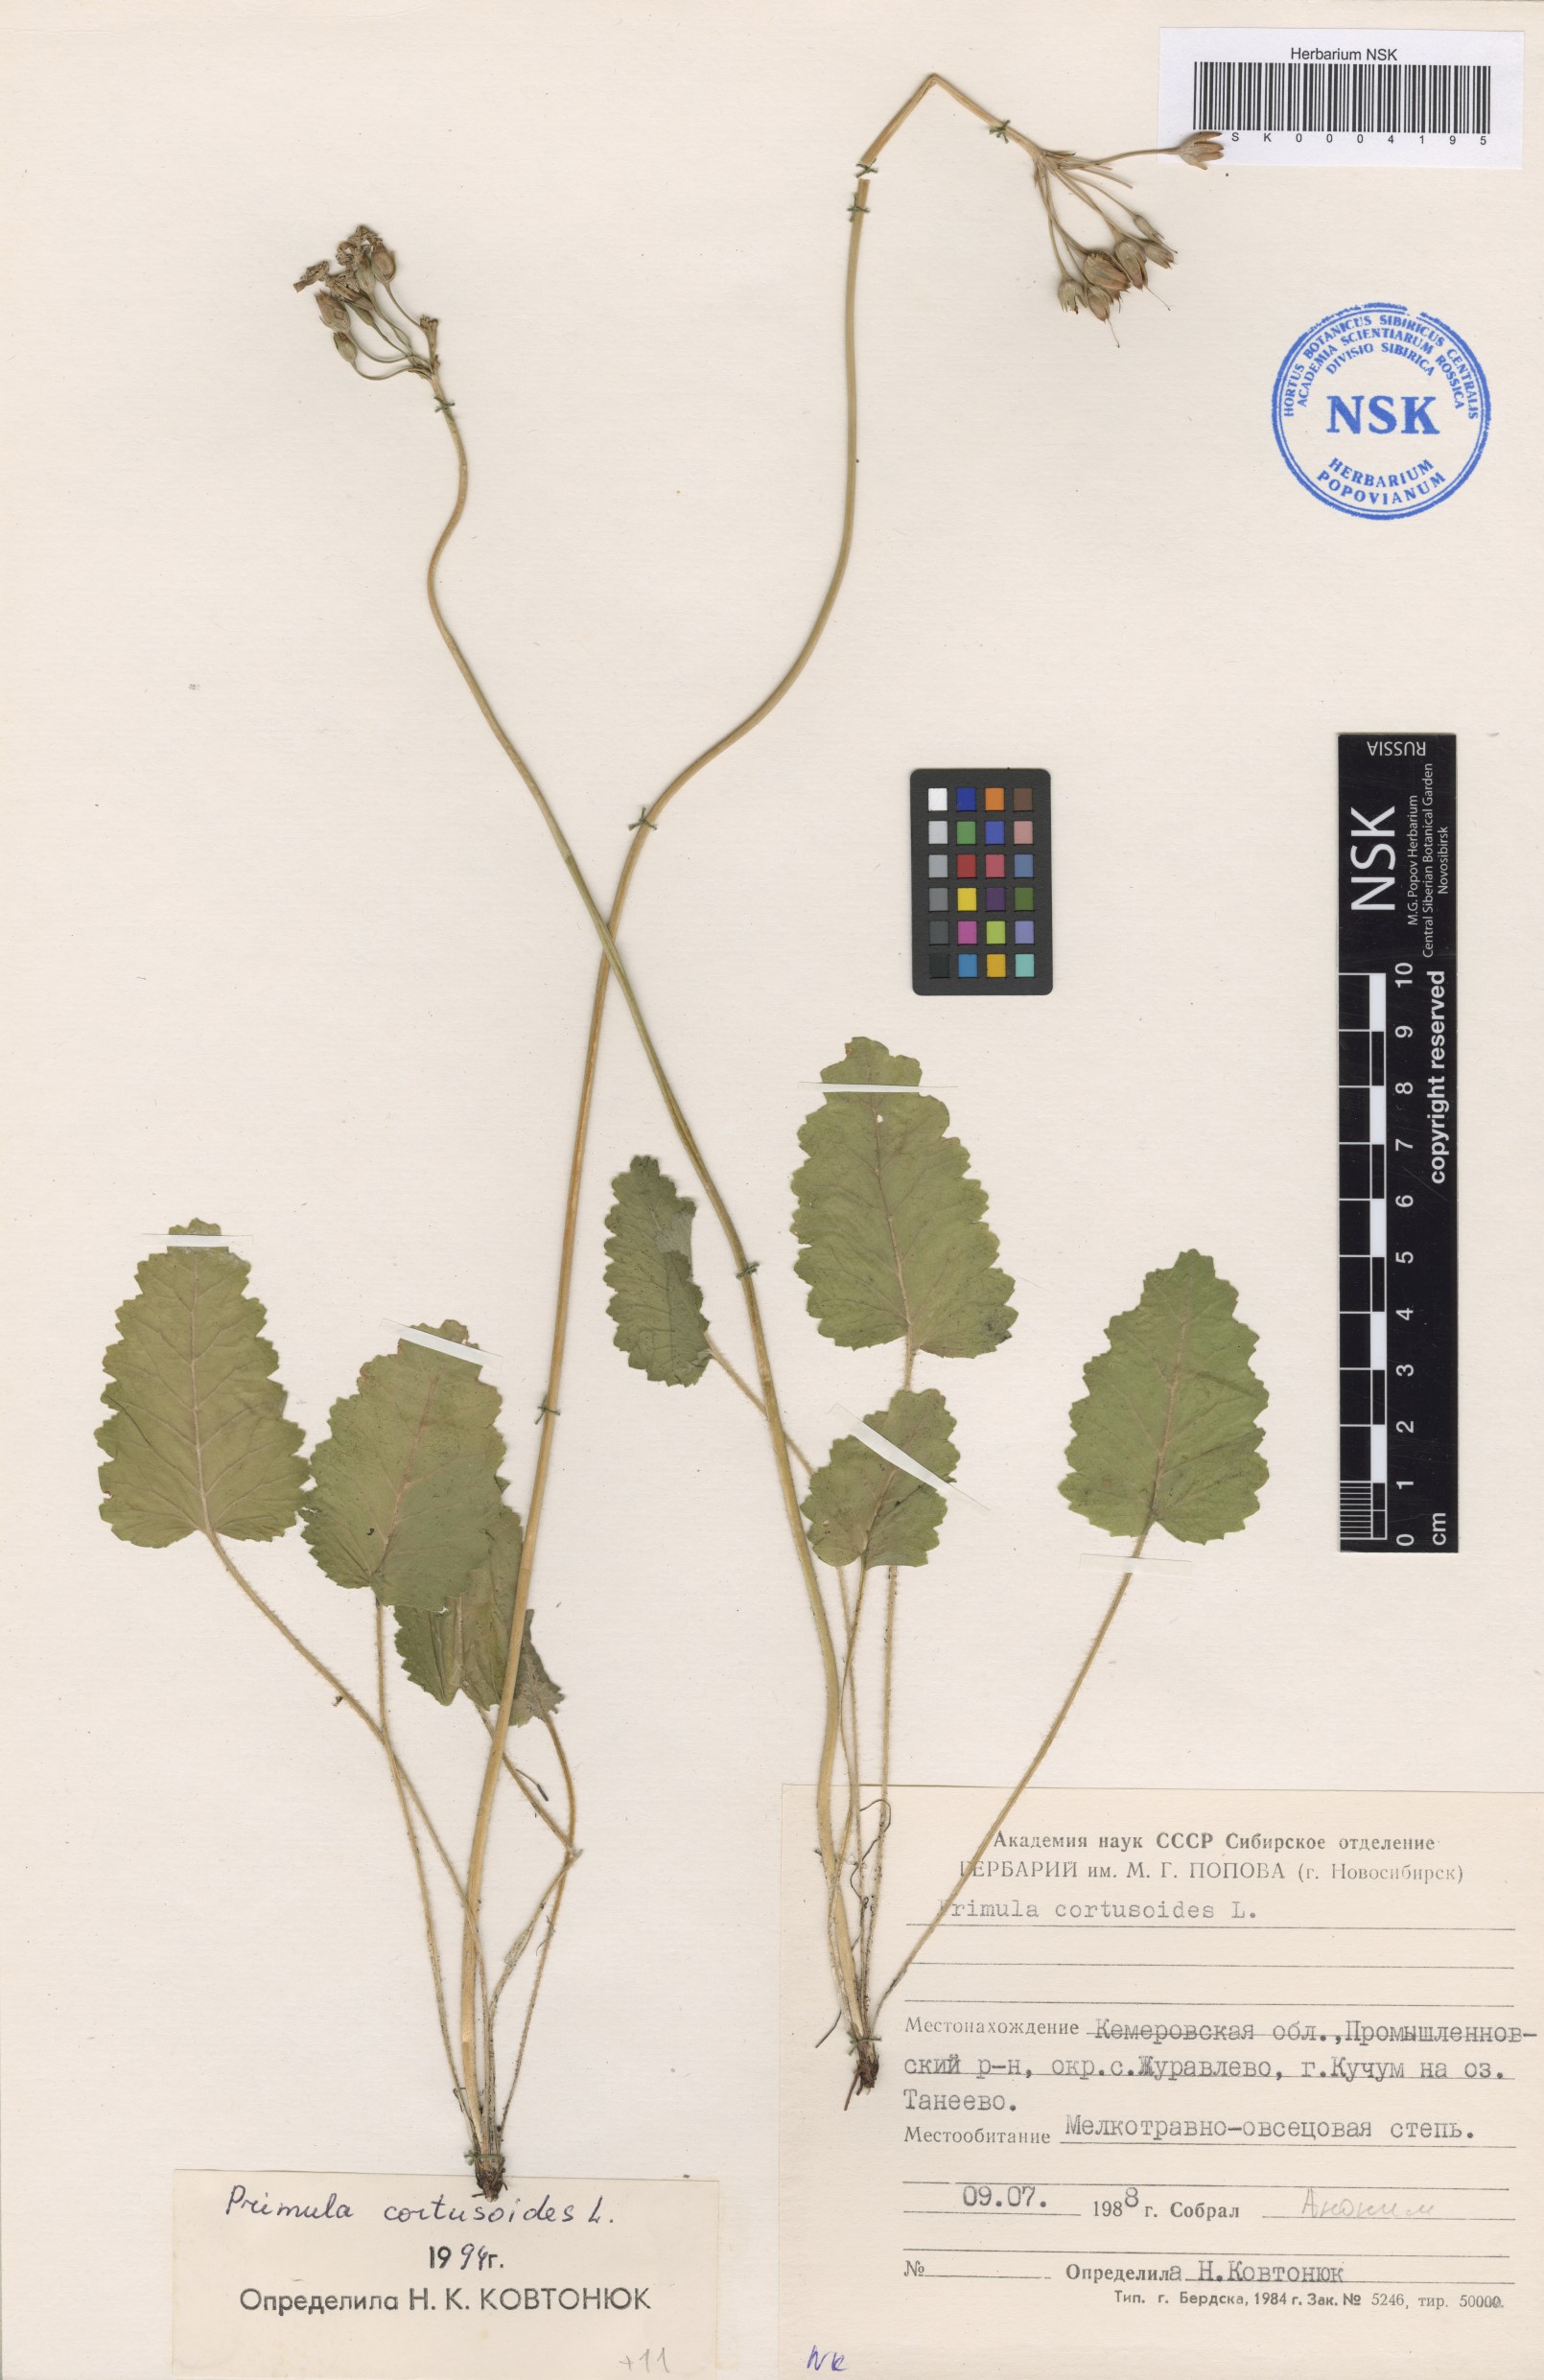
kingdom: Plantae
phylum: Tracheophyta
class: Magnoliopsida
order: Ericales
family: Primulaceae
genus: Primula
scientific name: Primula cortusoides
